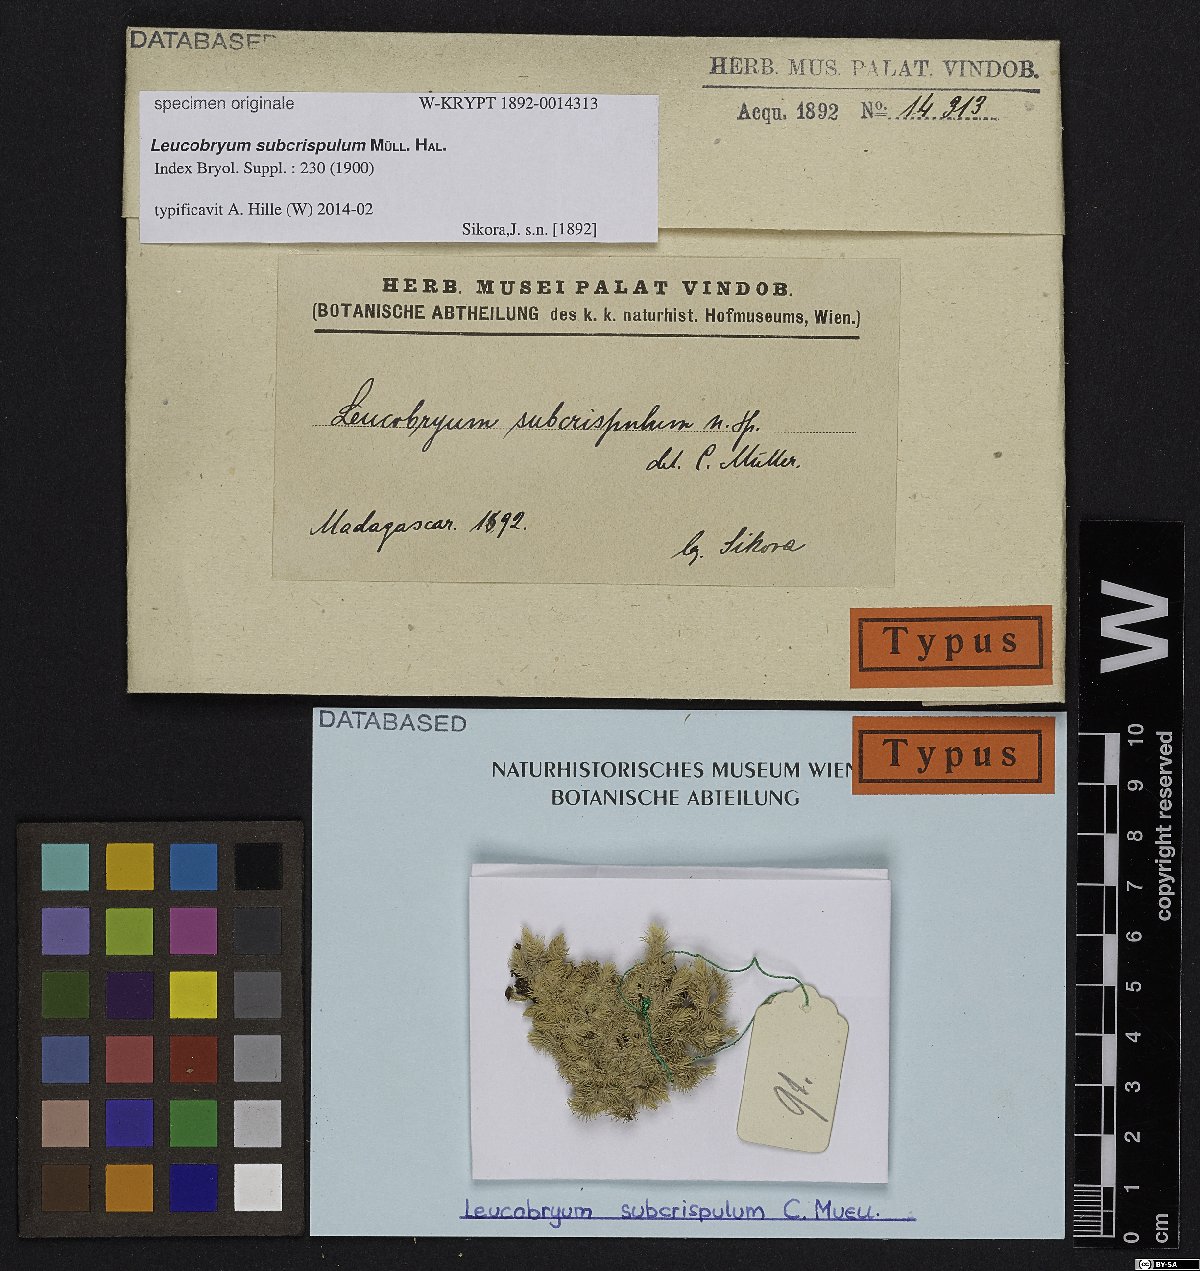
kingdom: Plantae
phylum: Bryophyta
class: Bryopsida
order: Dicranales
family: Leucobryaceae
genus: Leucobryum
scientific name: Leucobryum
